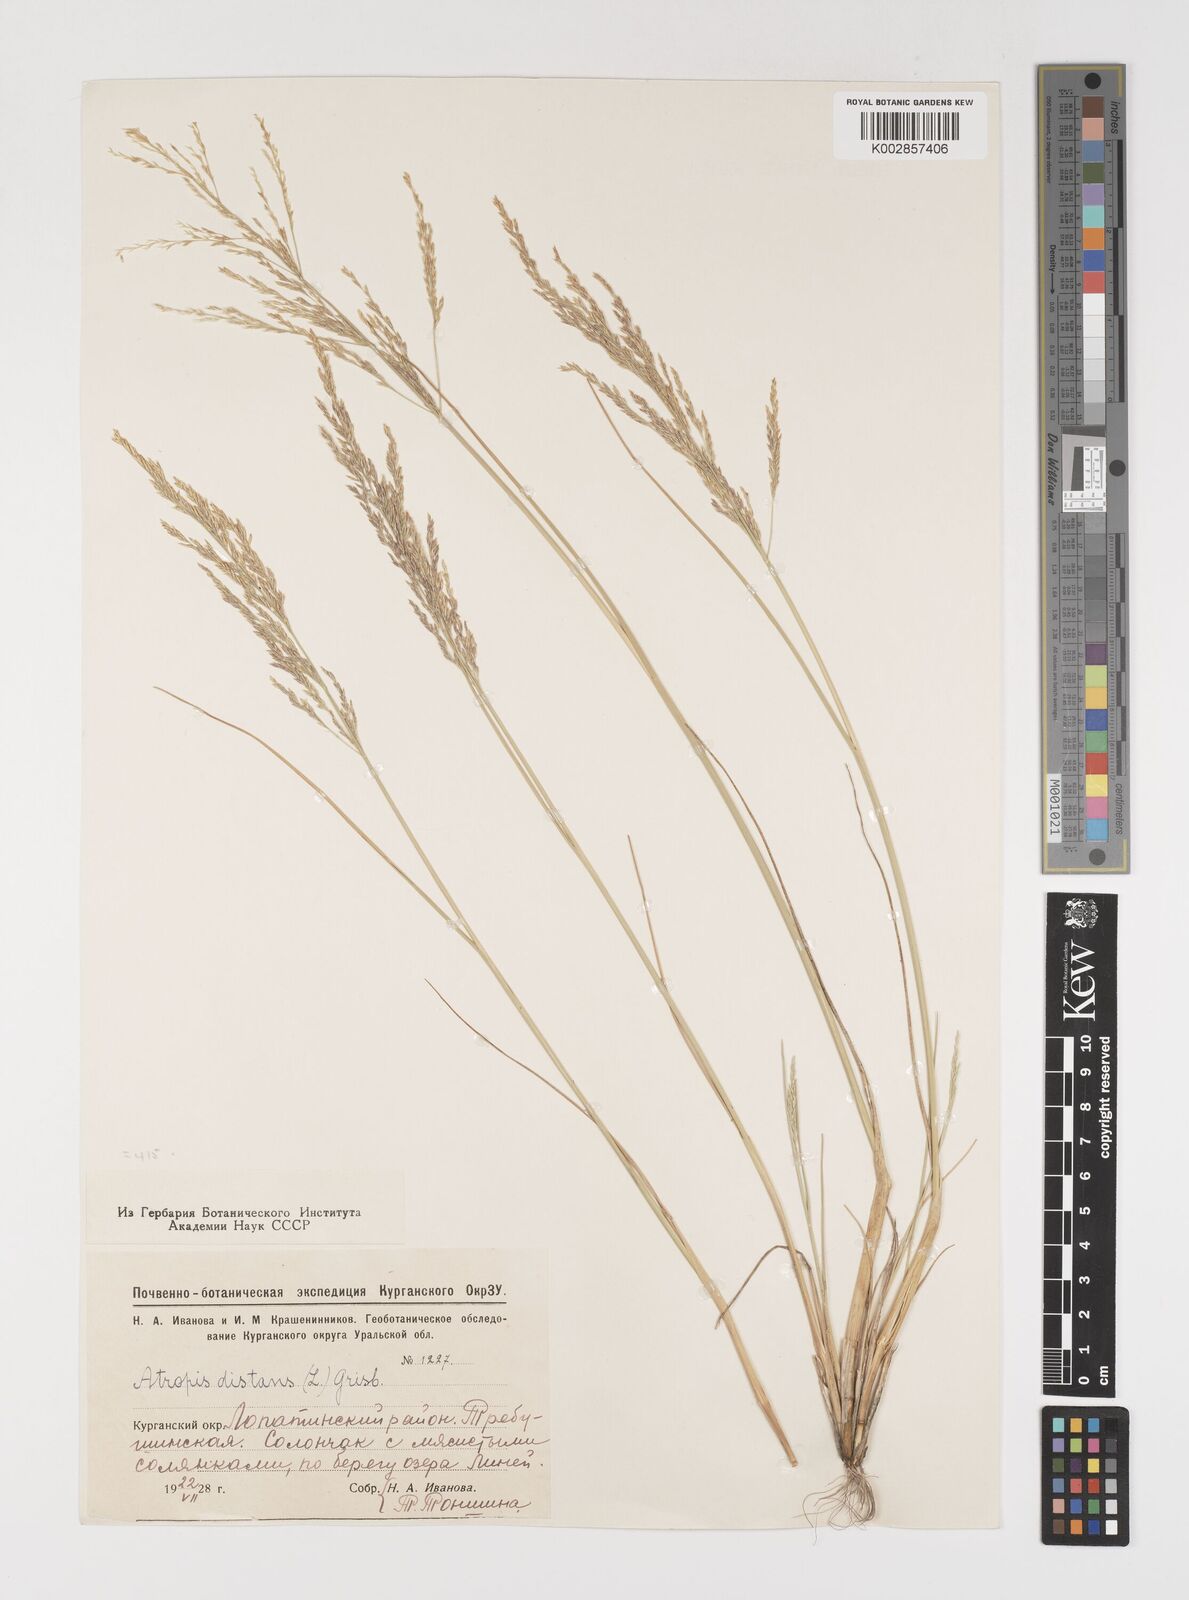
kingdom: Plantae
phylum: Tracheophyta
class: Liliopsida
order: Poales
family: Poaceae
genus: Puccinellia
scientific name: Puccinellia distans
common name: Weeping alkaligrass
